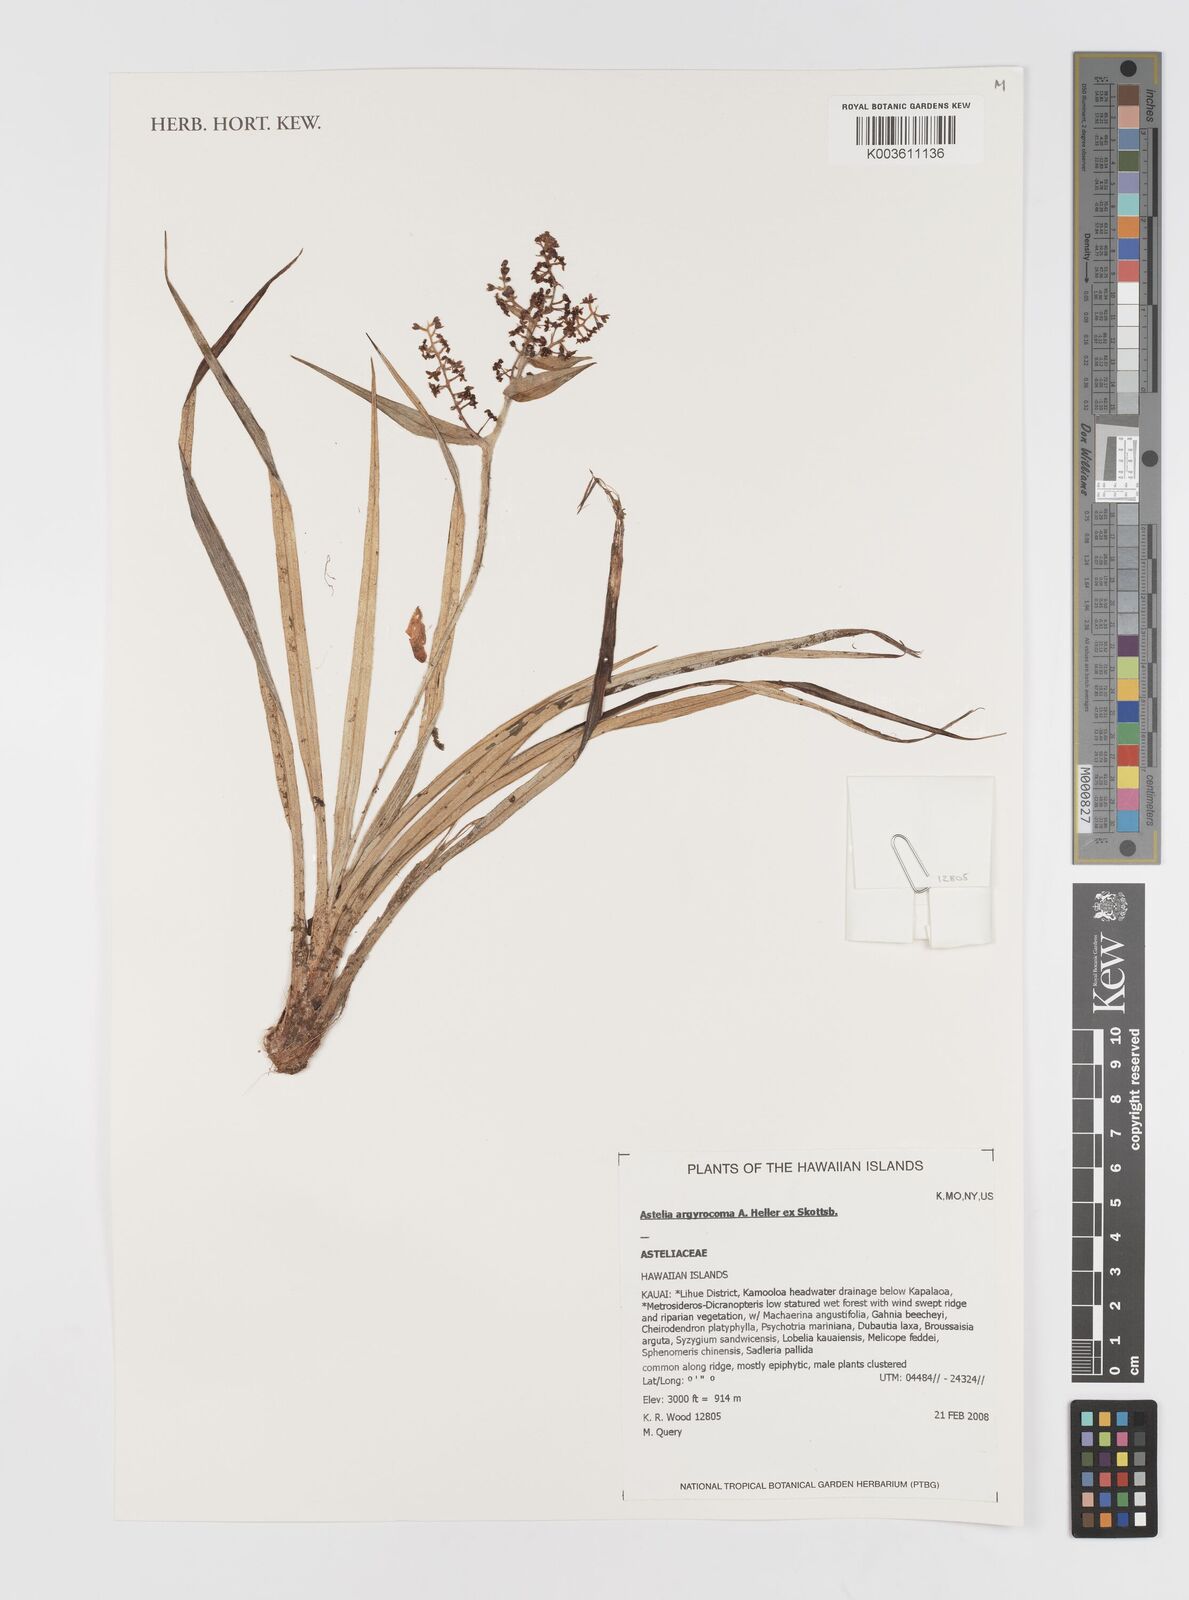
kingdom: Plantae
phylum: Tracheophyta
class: Liliopsida
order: Asparagales
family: Asteliaceae
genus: Astelia
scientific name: Astelia argyrocoma
